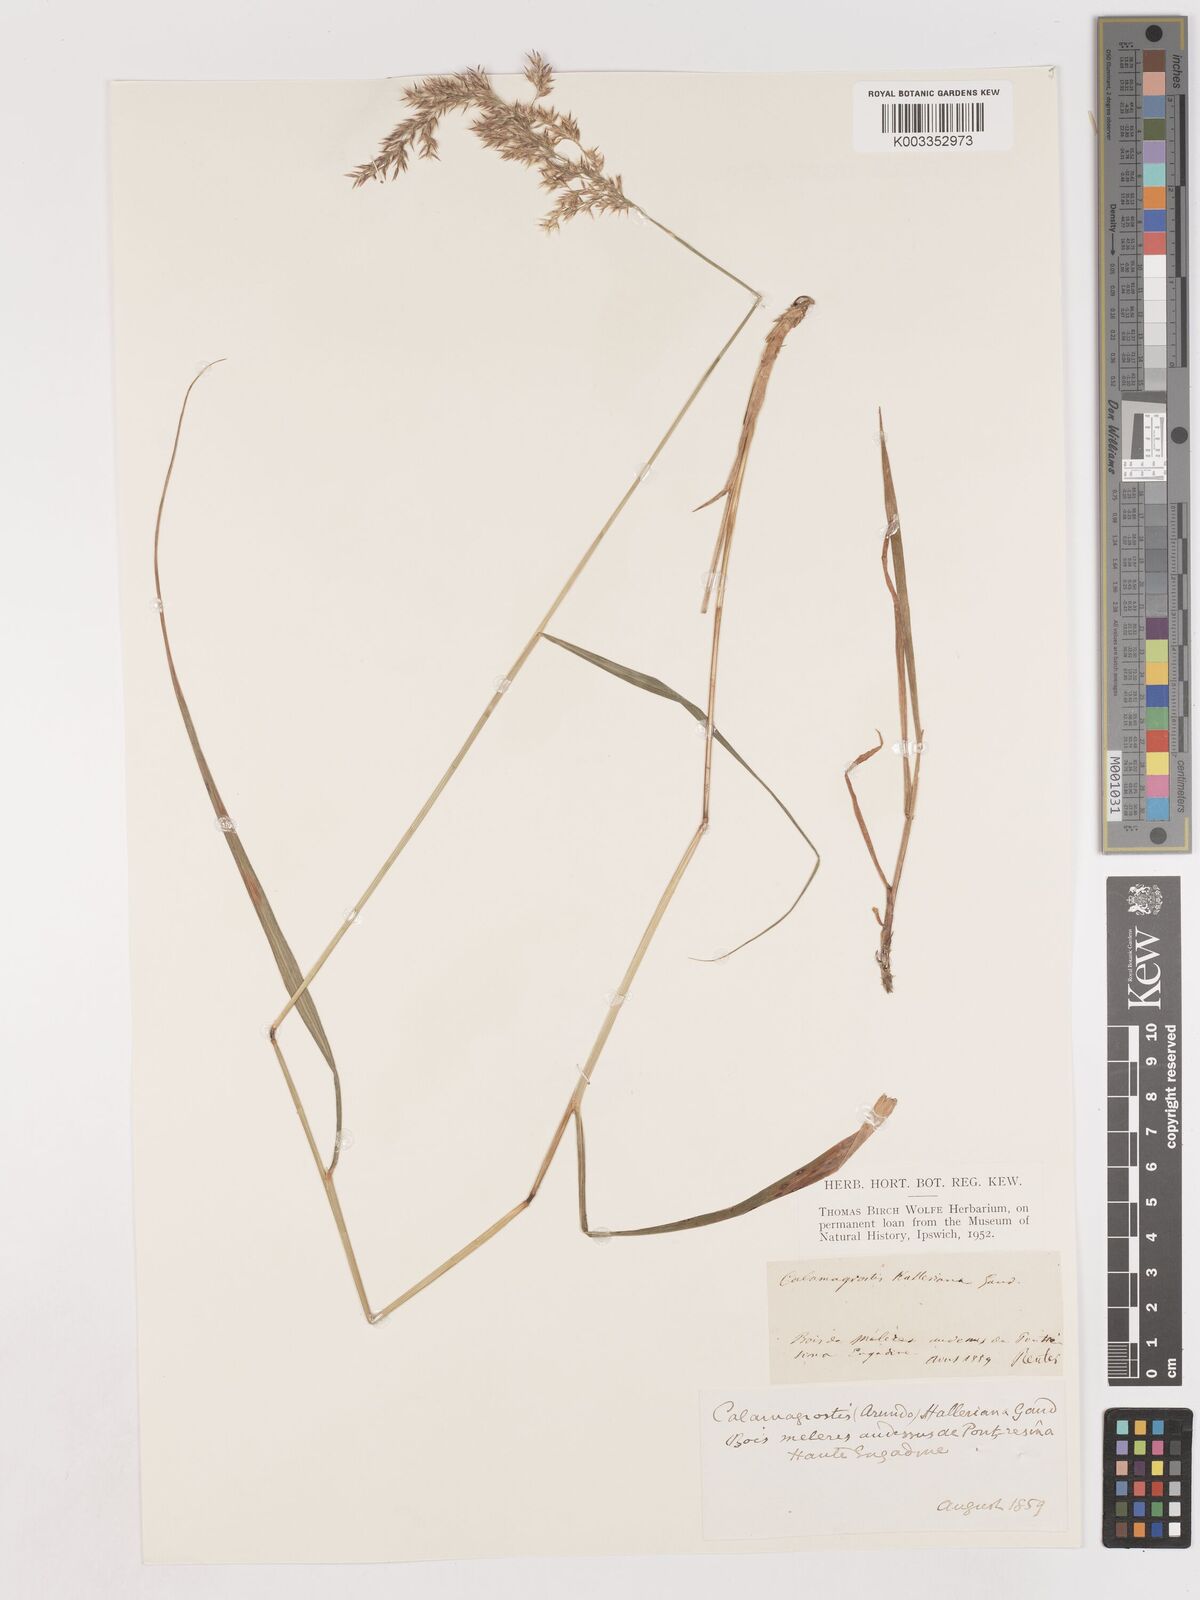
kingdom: Plantae
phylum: Tracheophyta
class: Liliopsida
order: Poales
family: Poaceae
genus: Calamagrostis
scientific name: Calamagrostis canescens
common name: Purple small-reed
